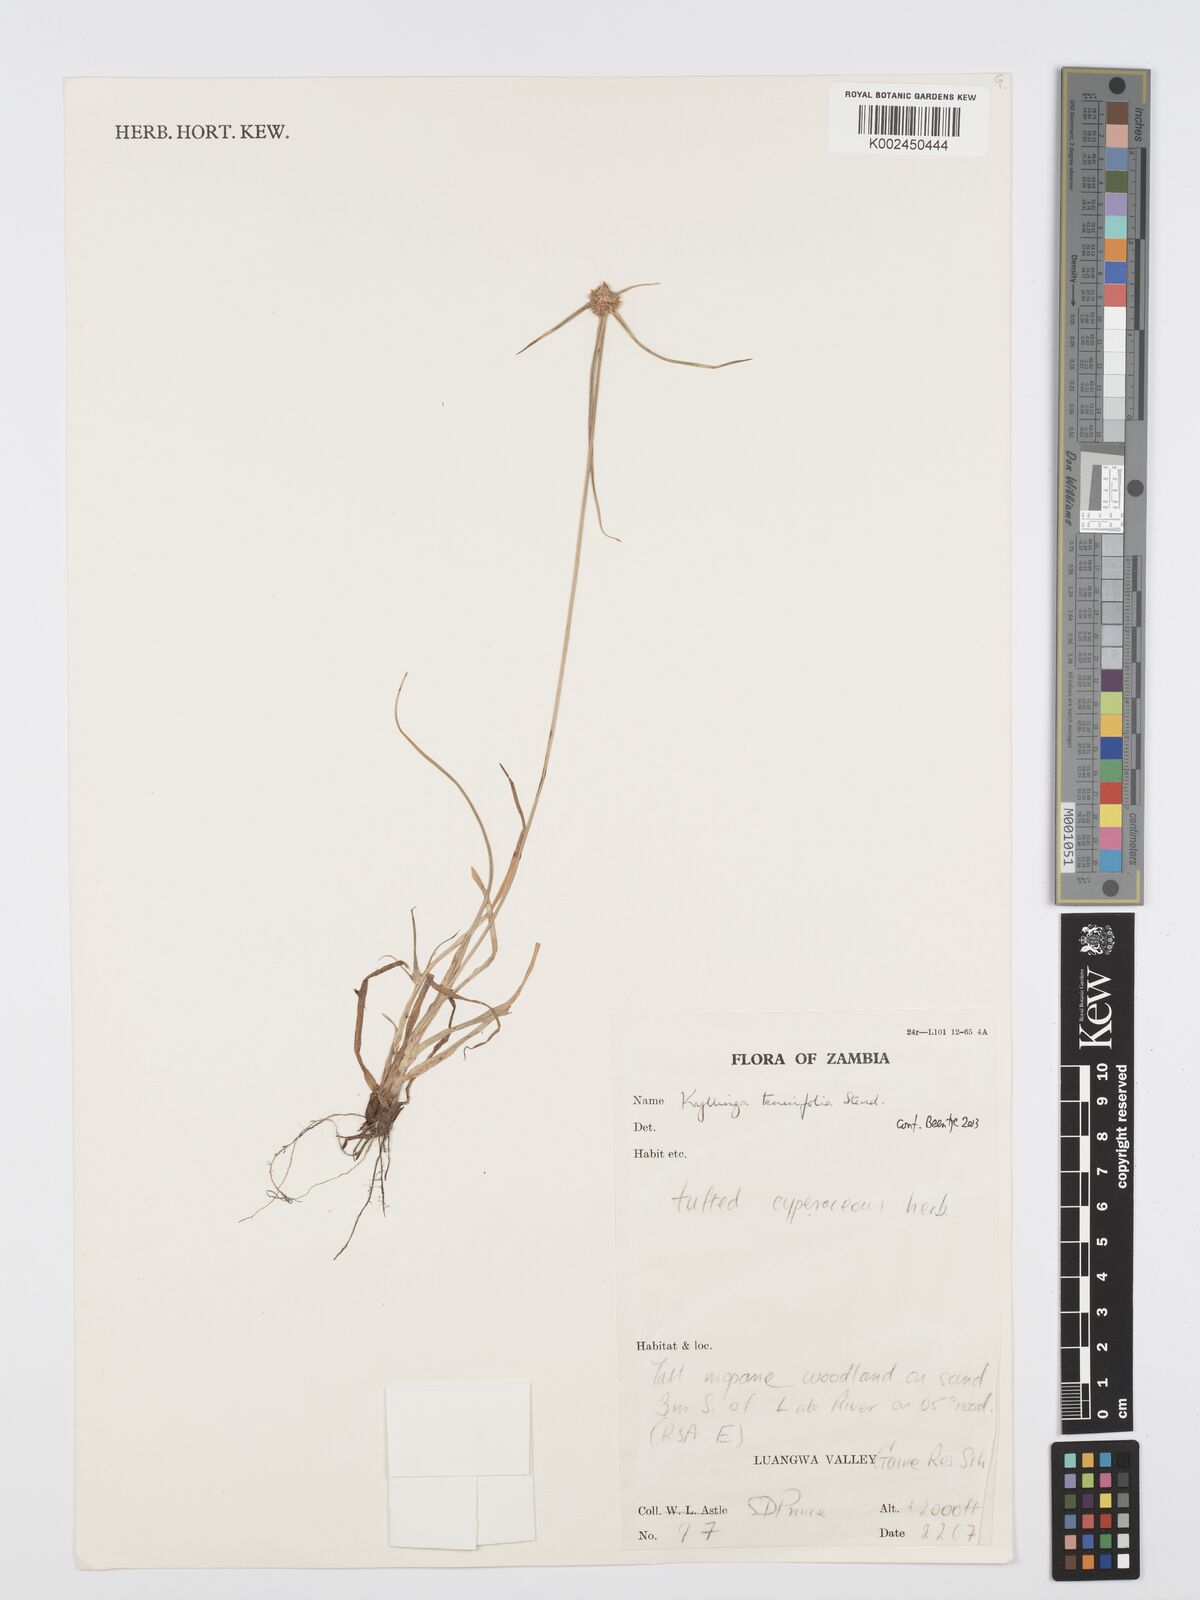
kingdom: Plantae
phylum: Tracheophyta
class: Liliopsida
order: Poales
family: Cyperaceae
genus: Cyperus
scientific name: Cyperus tenuifolius
